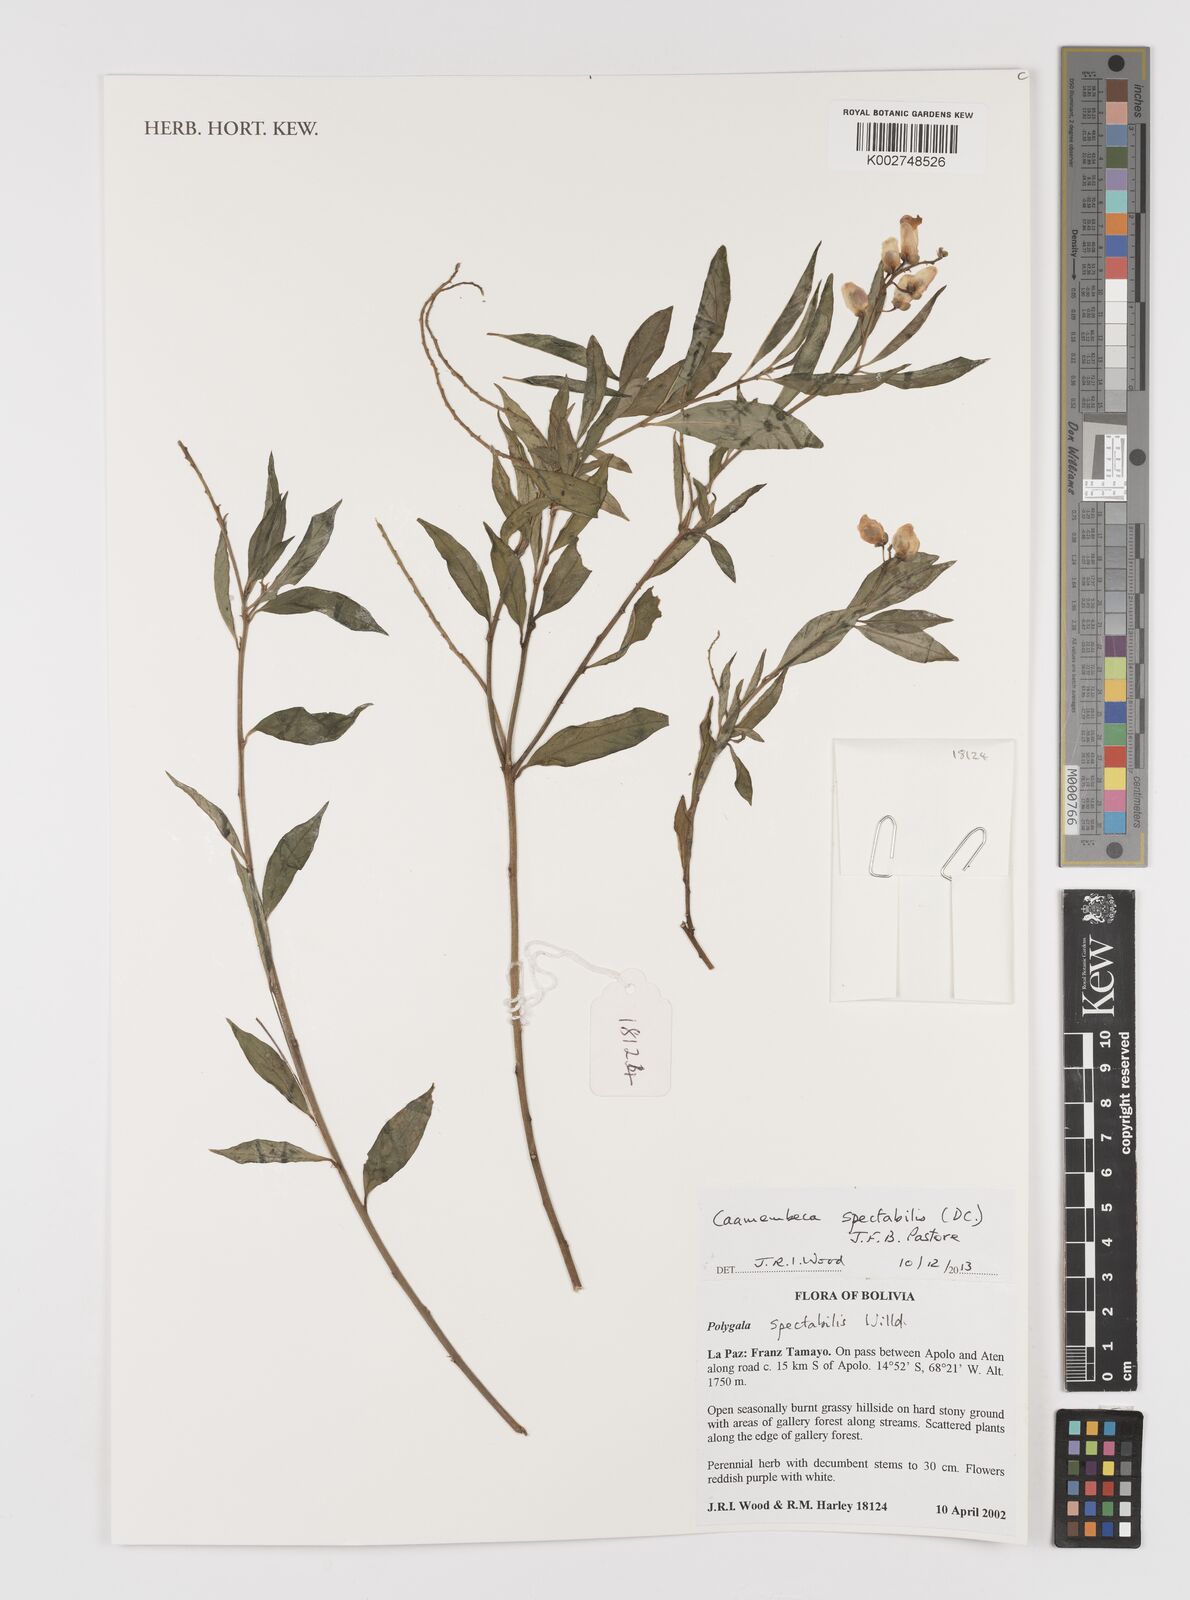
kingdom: Plantae
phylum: Tracheophyta
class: Magnoliopsida
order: Fabales
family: Polygalaceae
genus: Caamembeca
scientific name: Caamembeca spectabilis
